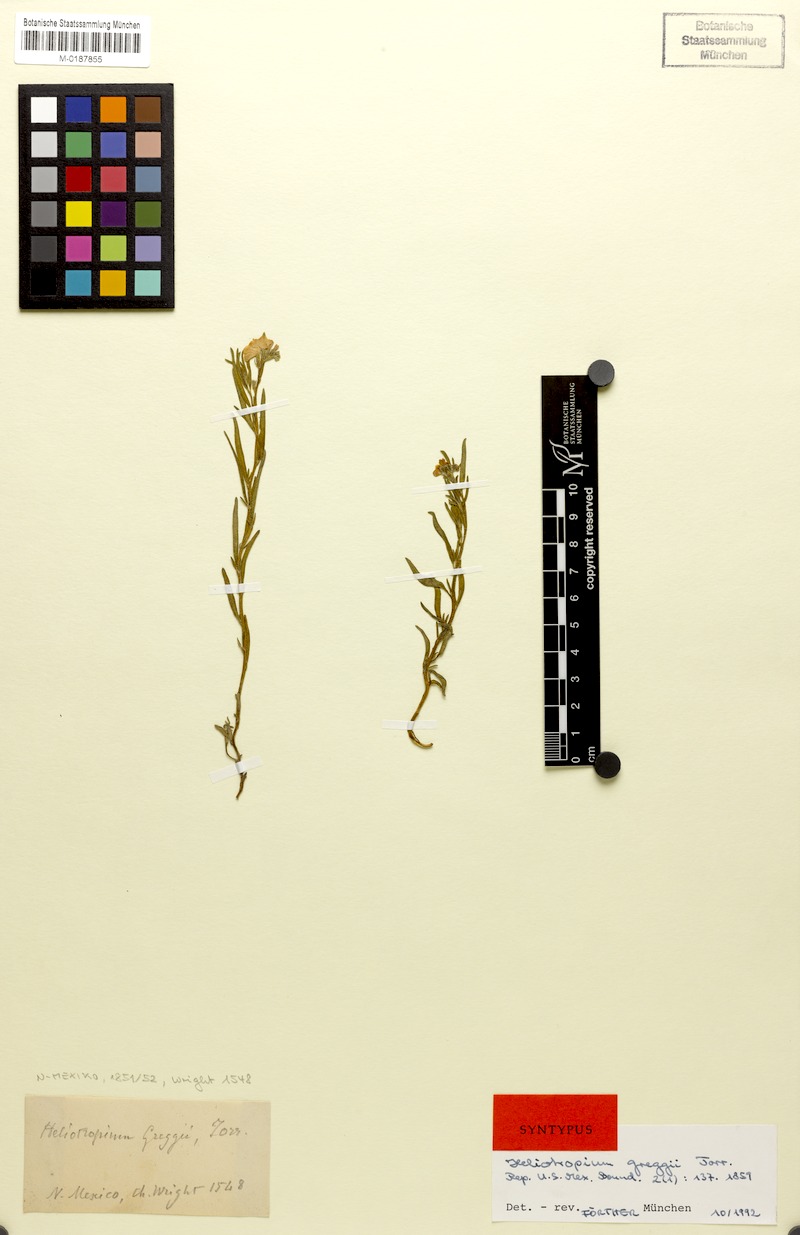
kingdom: Plantae
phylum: Tracheophyta
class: Magnoliopsida
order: Boraginales
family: Heliotropiaceae
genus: Euploca
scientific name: Euploca greggii
